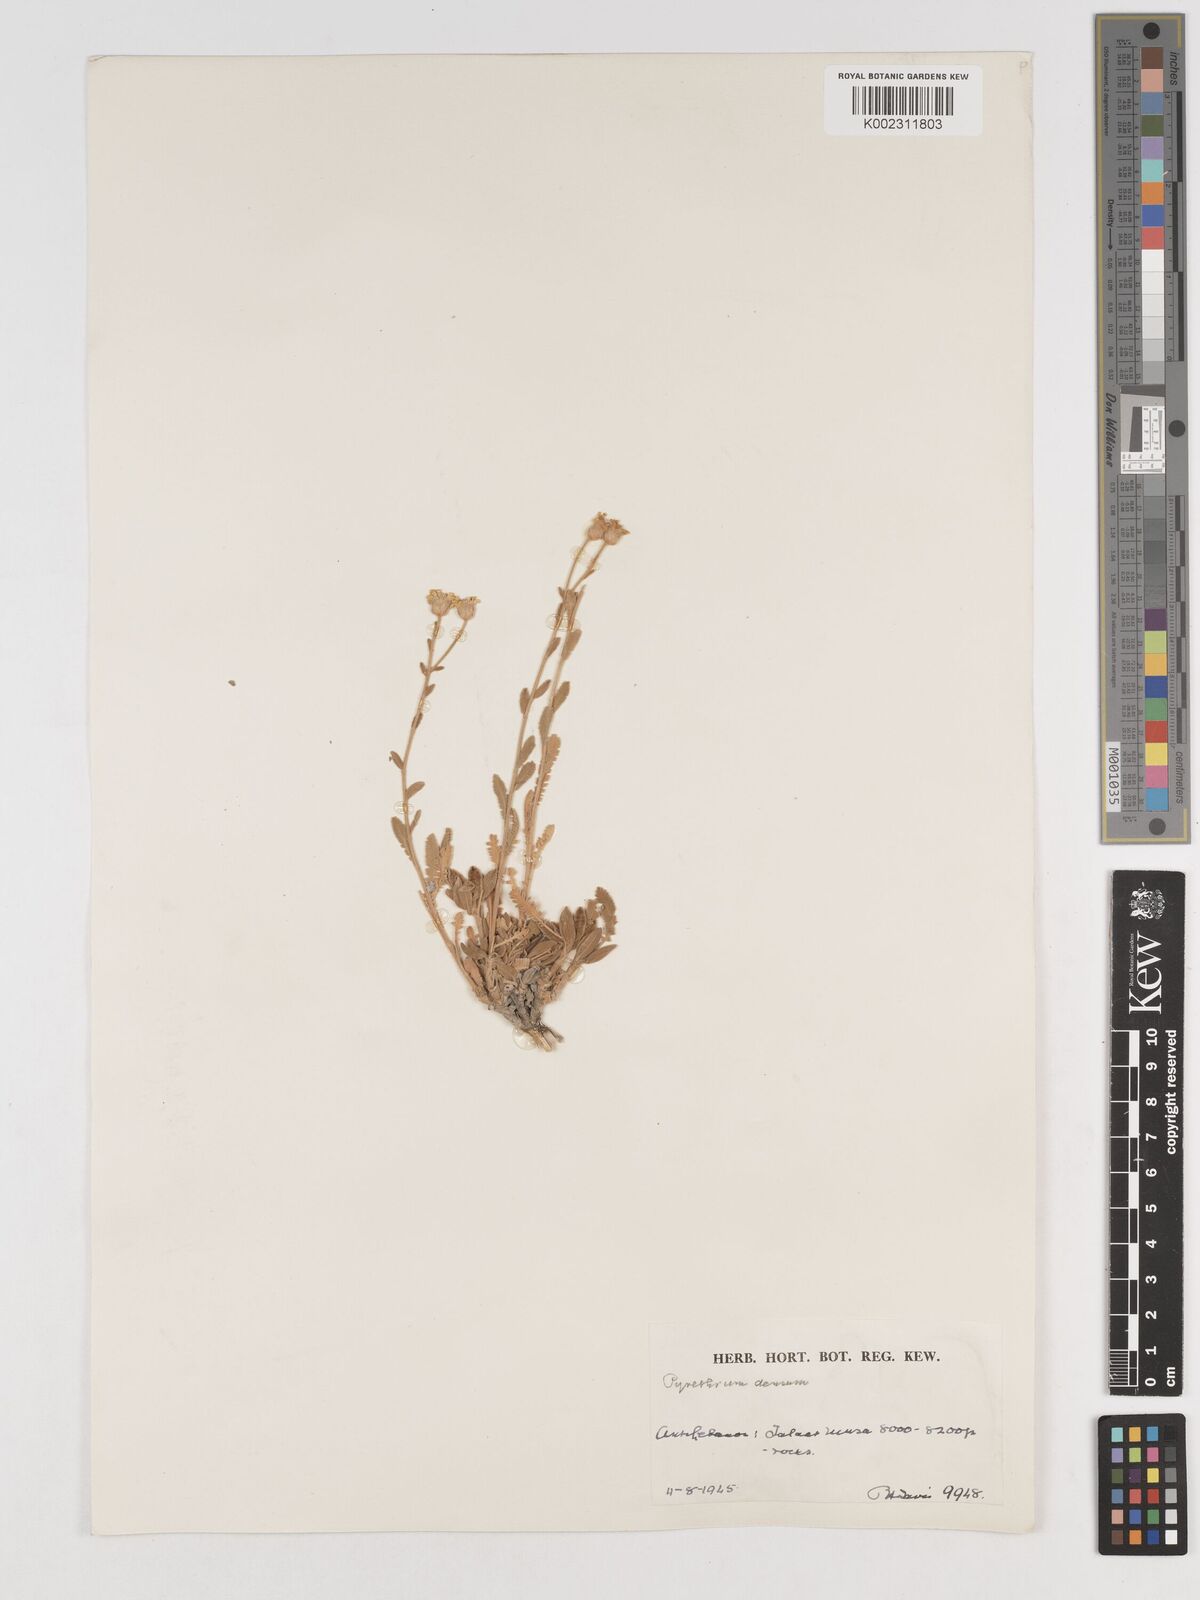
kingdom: Plantae
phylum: Tracheophyta
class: Magnoliopsida
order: Asterales
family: Asteraceae
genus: Tanacetum
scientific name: Tanacetum densum
